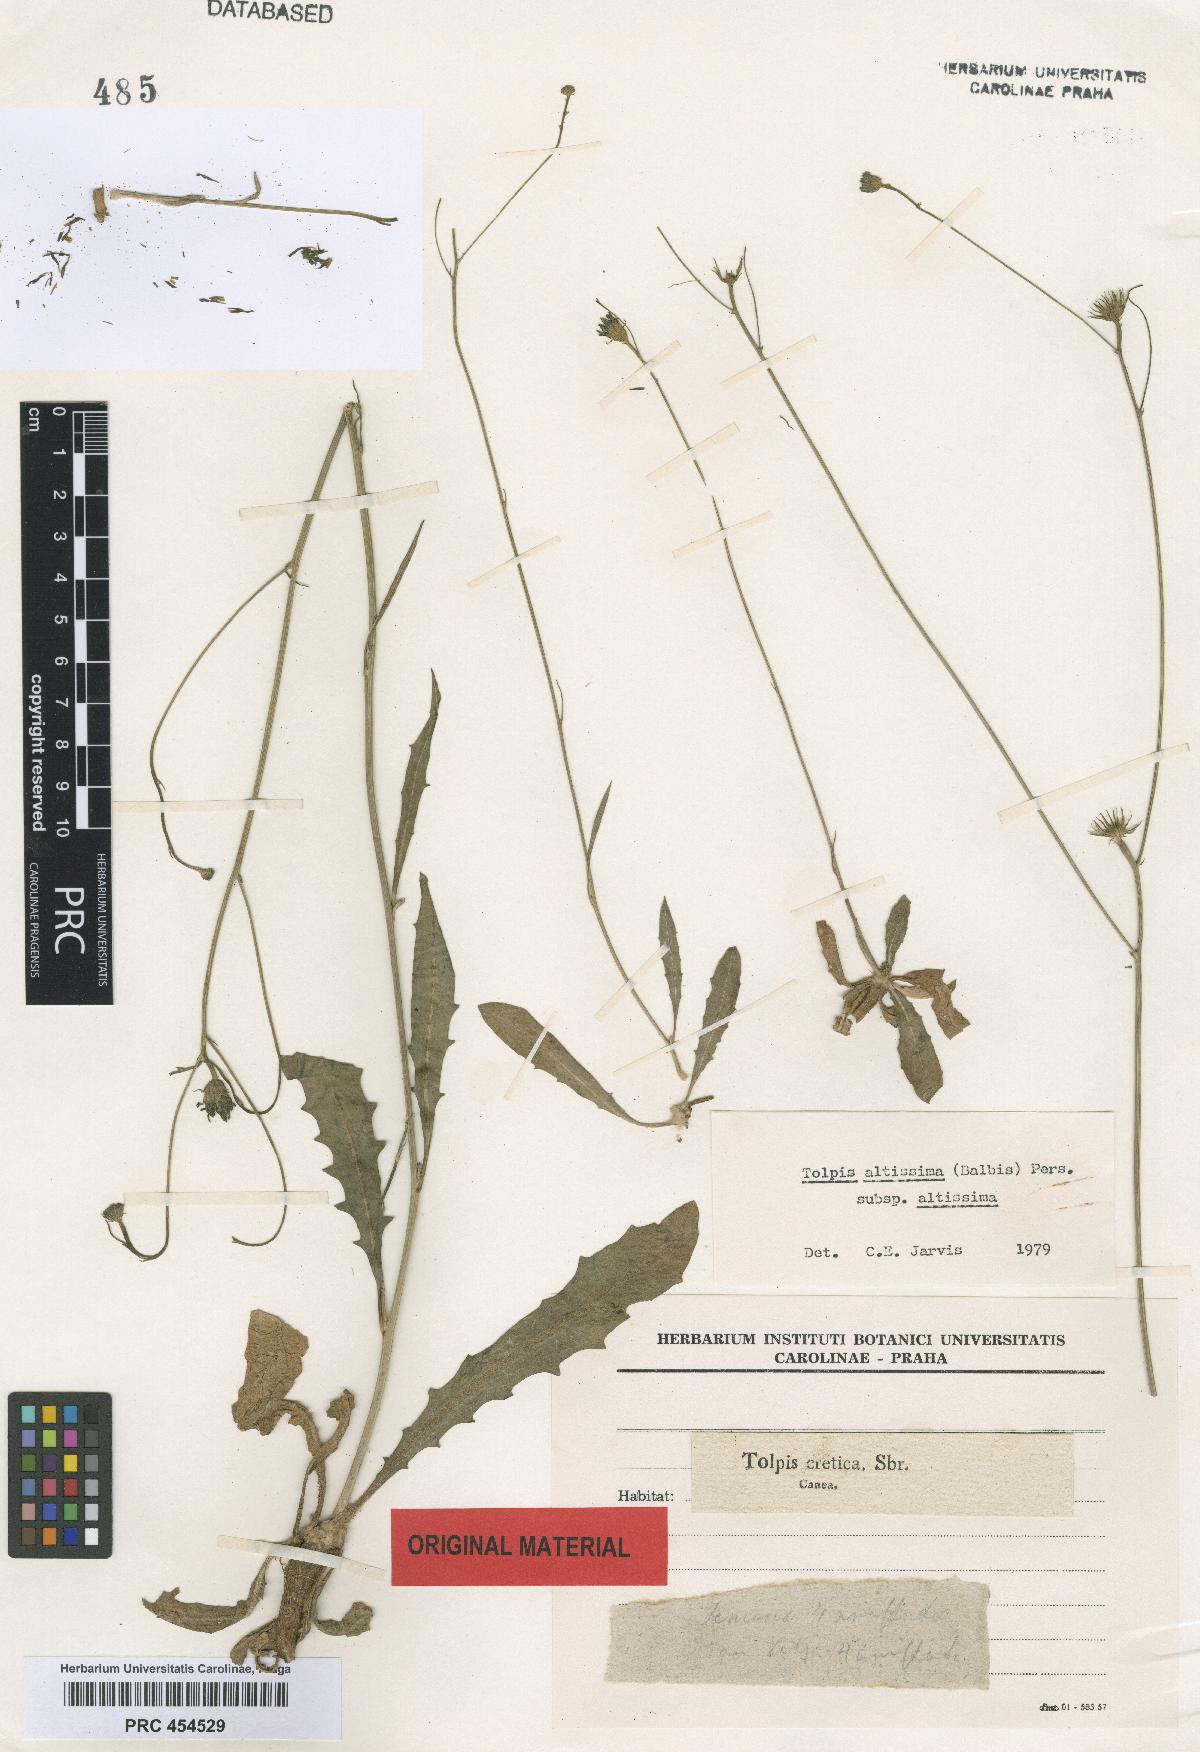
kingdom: Plantae
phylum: Tracheophyta
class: Magnoliopsida
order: Asterales
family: Asteraceae
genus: Tolpis
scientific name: Tolpis virgata
